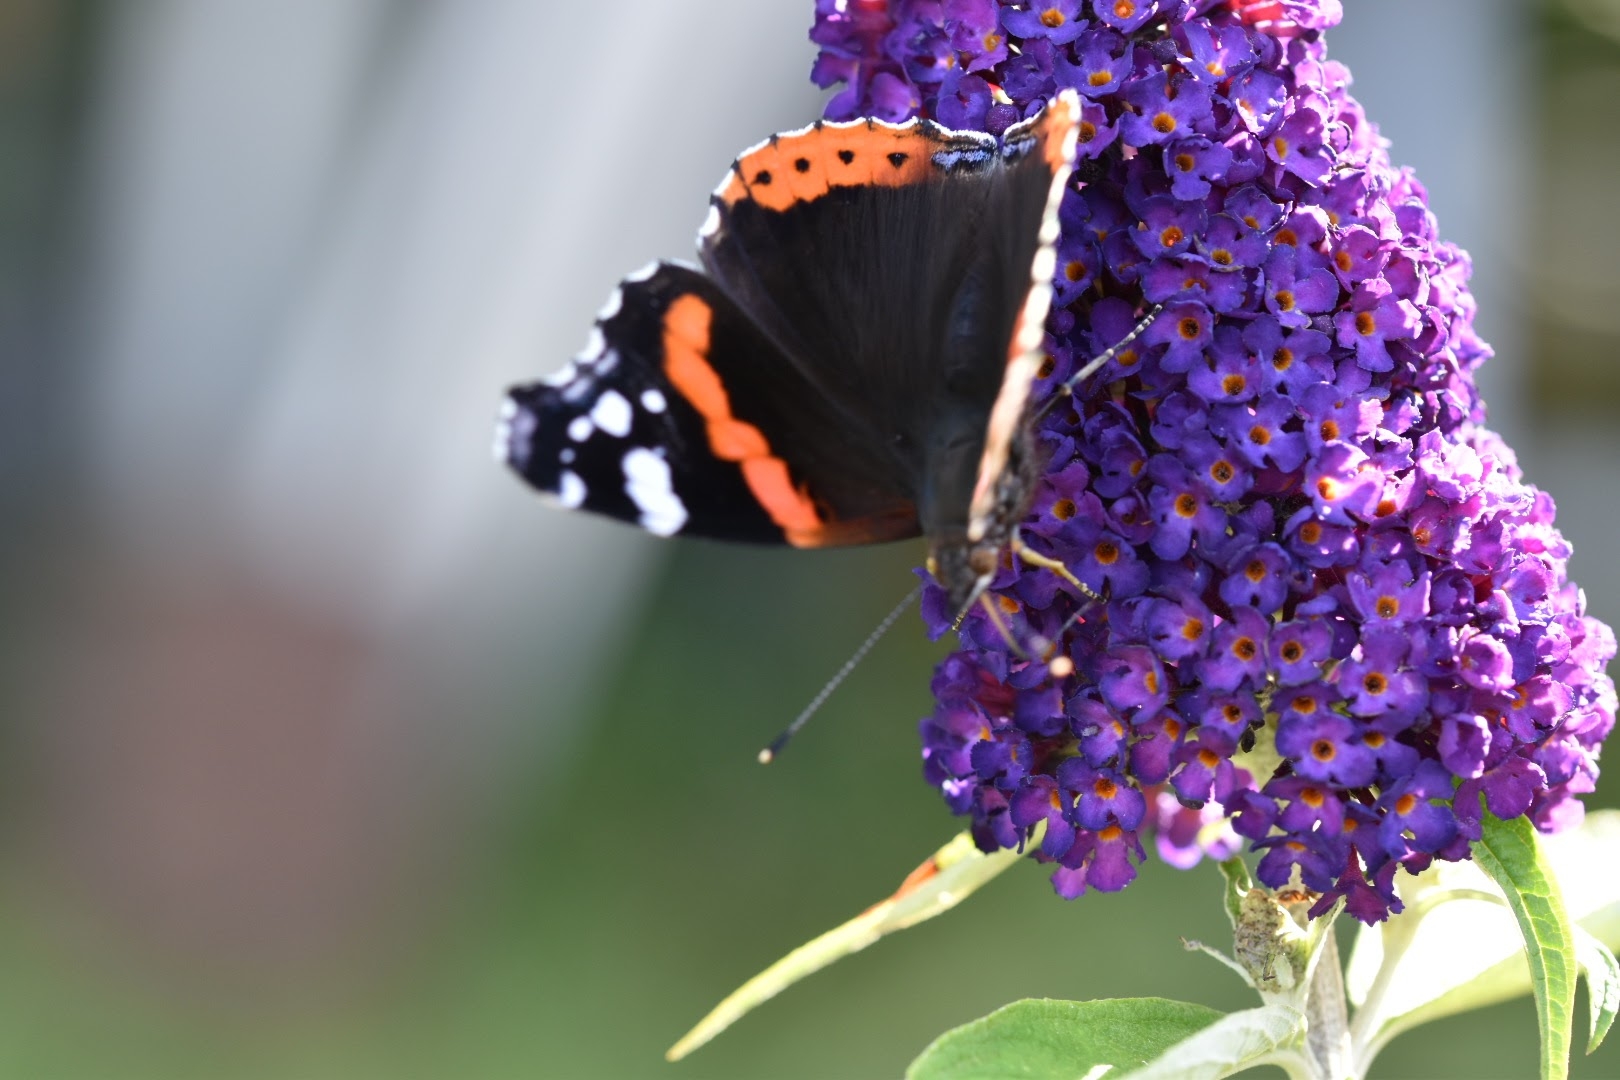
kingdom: Animalia
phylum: Arthropoda
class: Insecta
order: Lepidoptera
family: Nymphalidae
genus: Vanessa
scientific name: Vanessa atalanta
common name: Admiral
